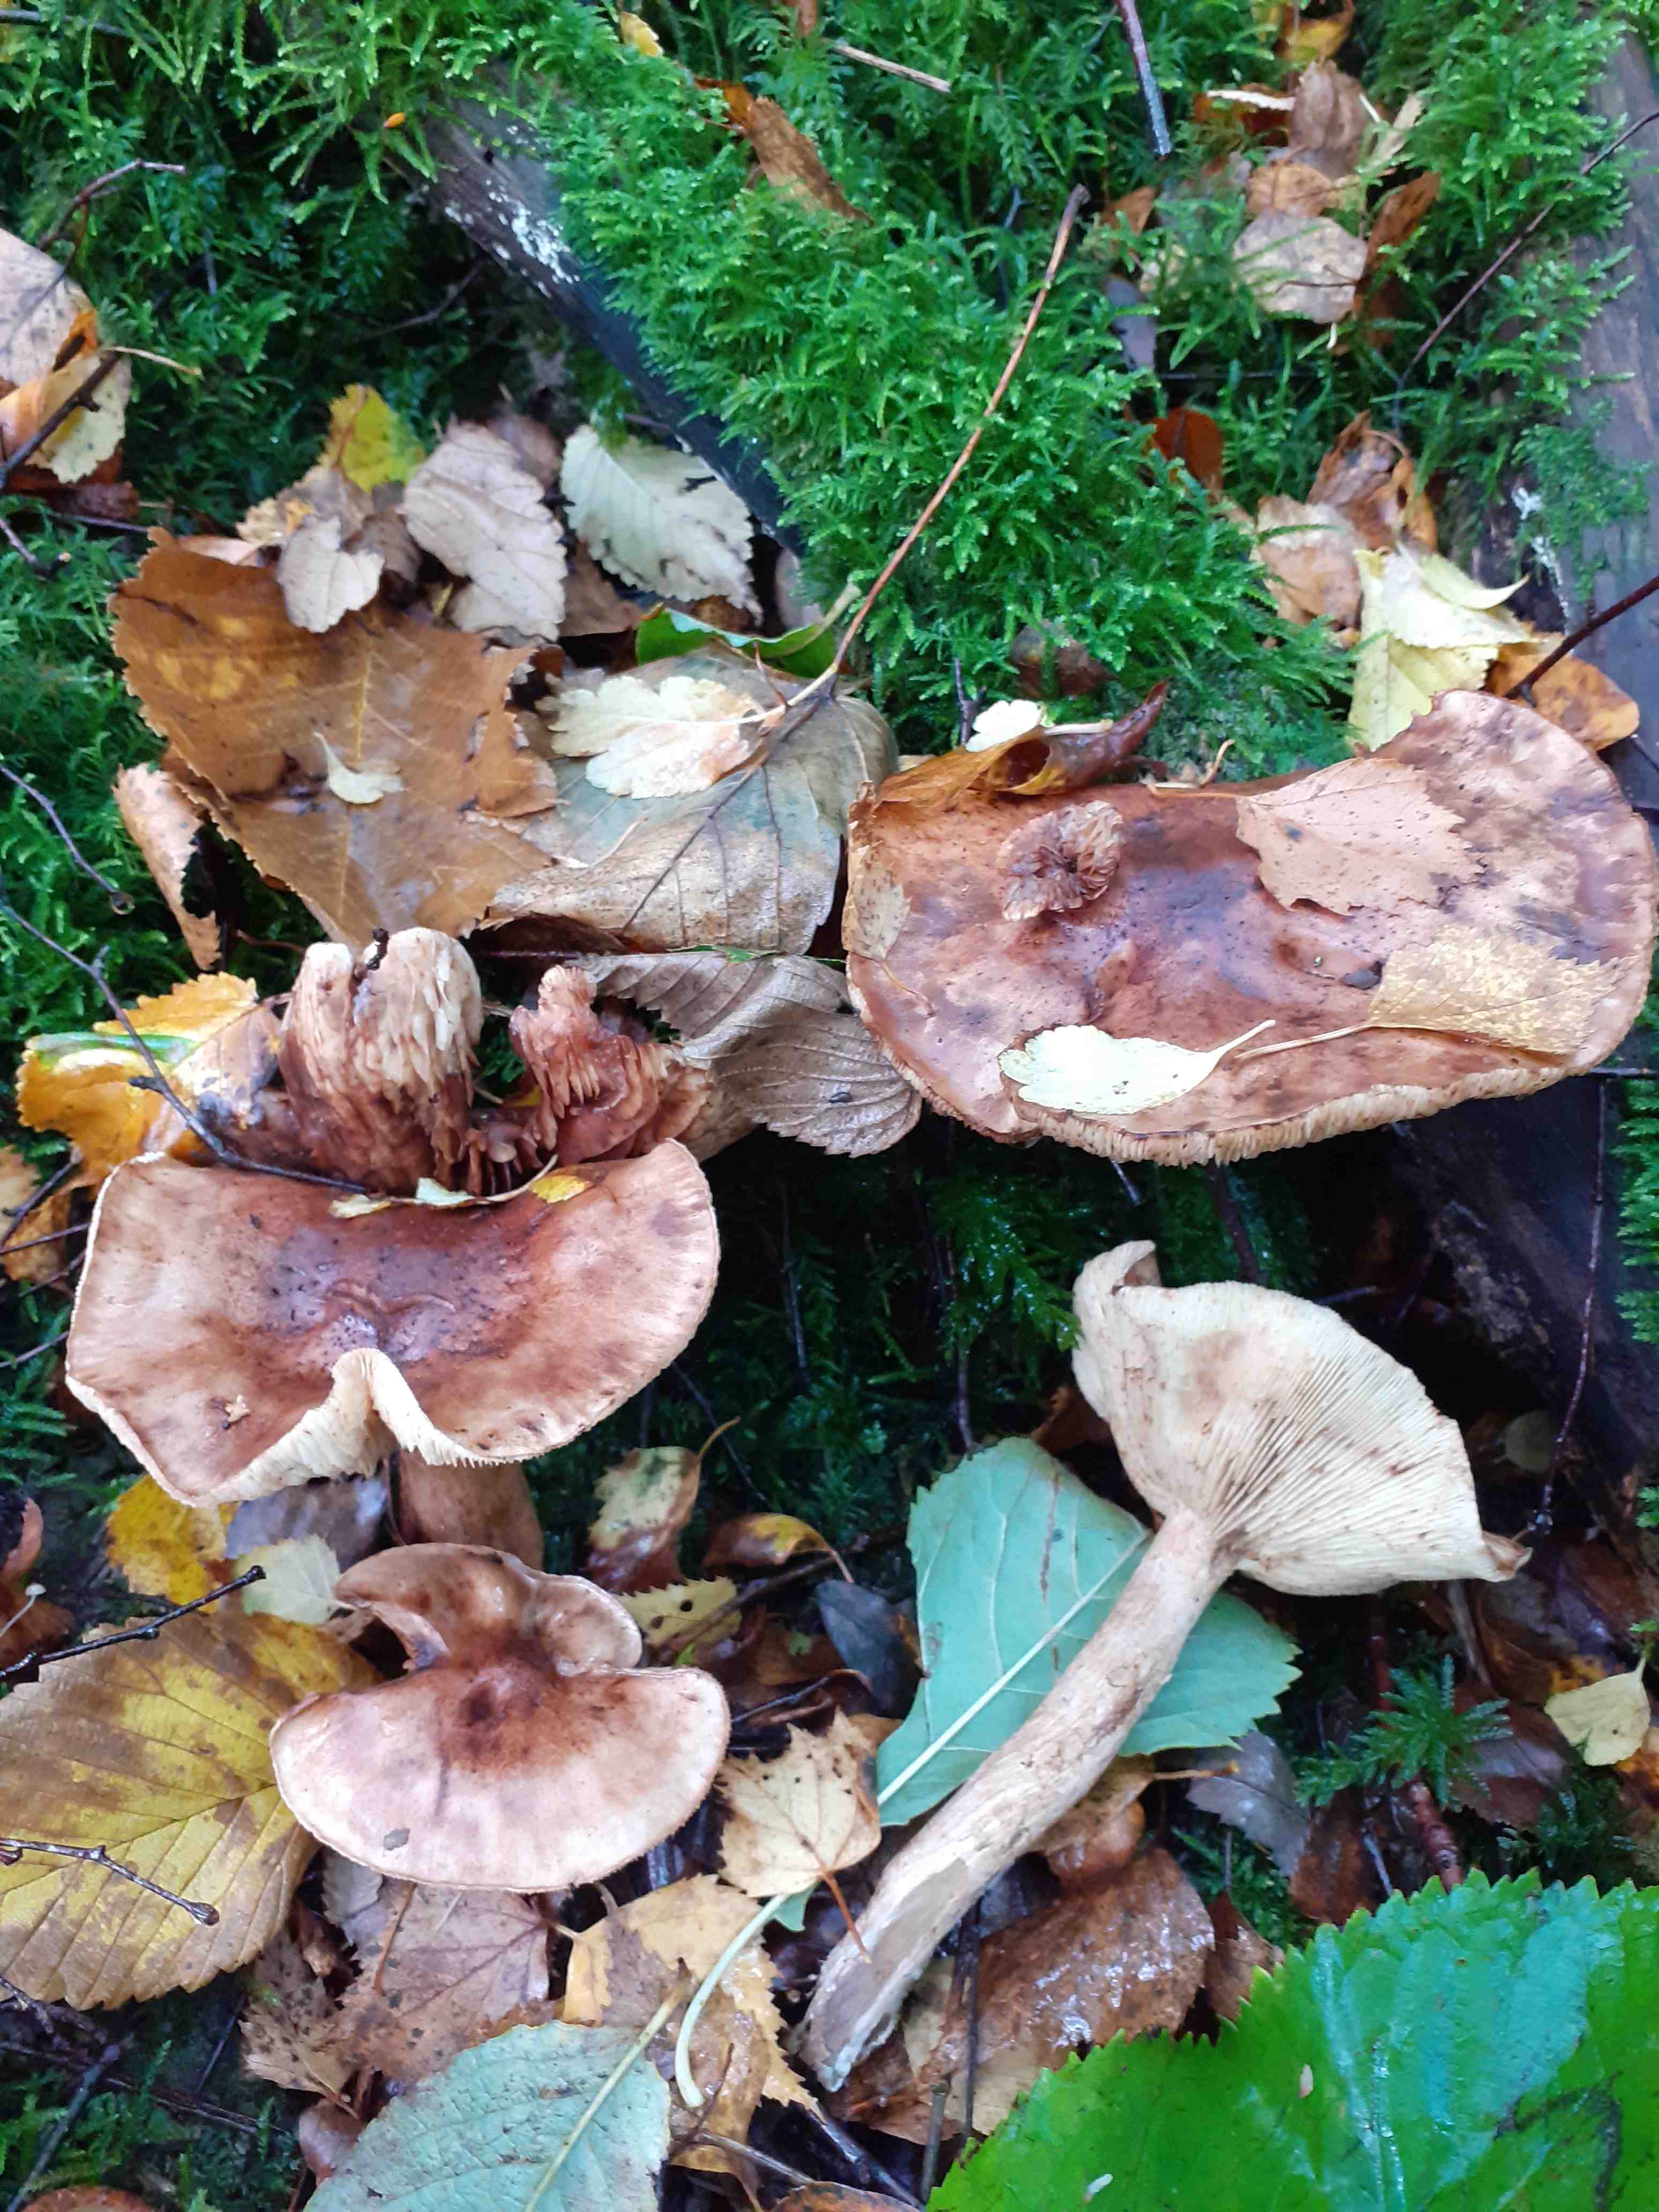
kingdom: Fungi
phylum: Basidiomycota
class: Agaricomycetes
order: Agaricales
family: Tricholomataceae
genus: Tricholoma
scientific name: Tricholoma fulvum
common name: birke-ridderhat
